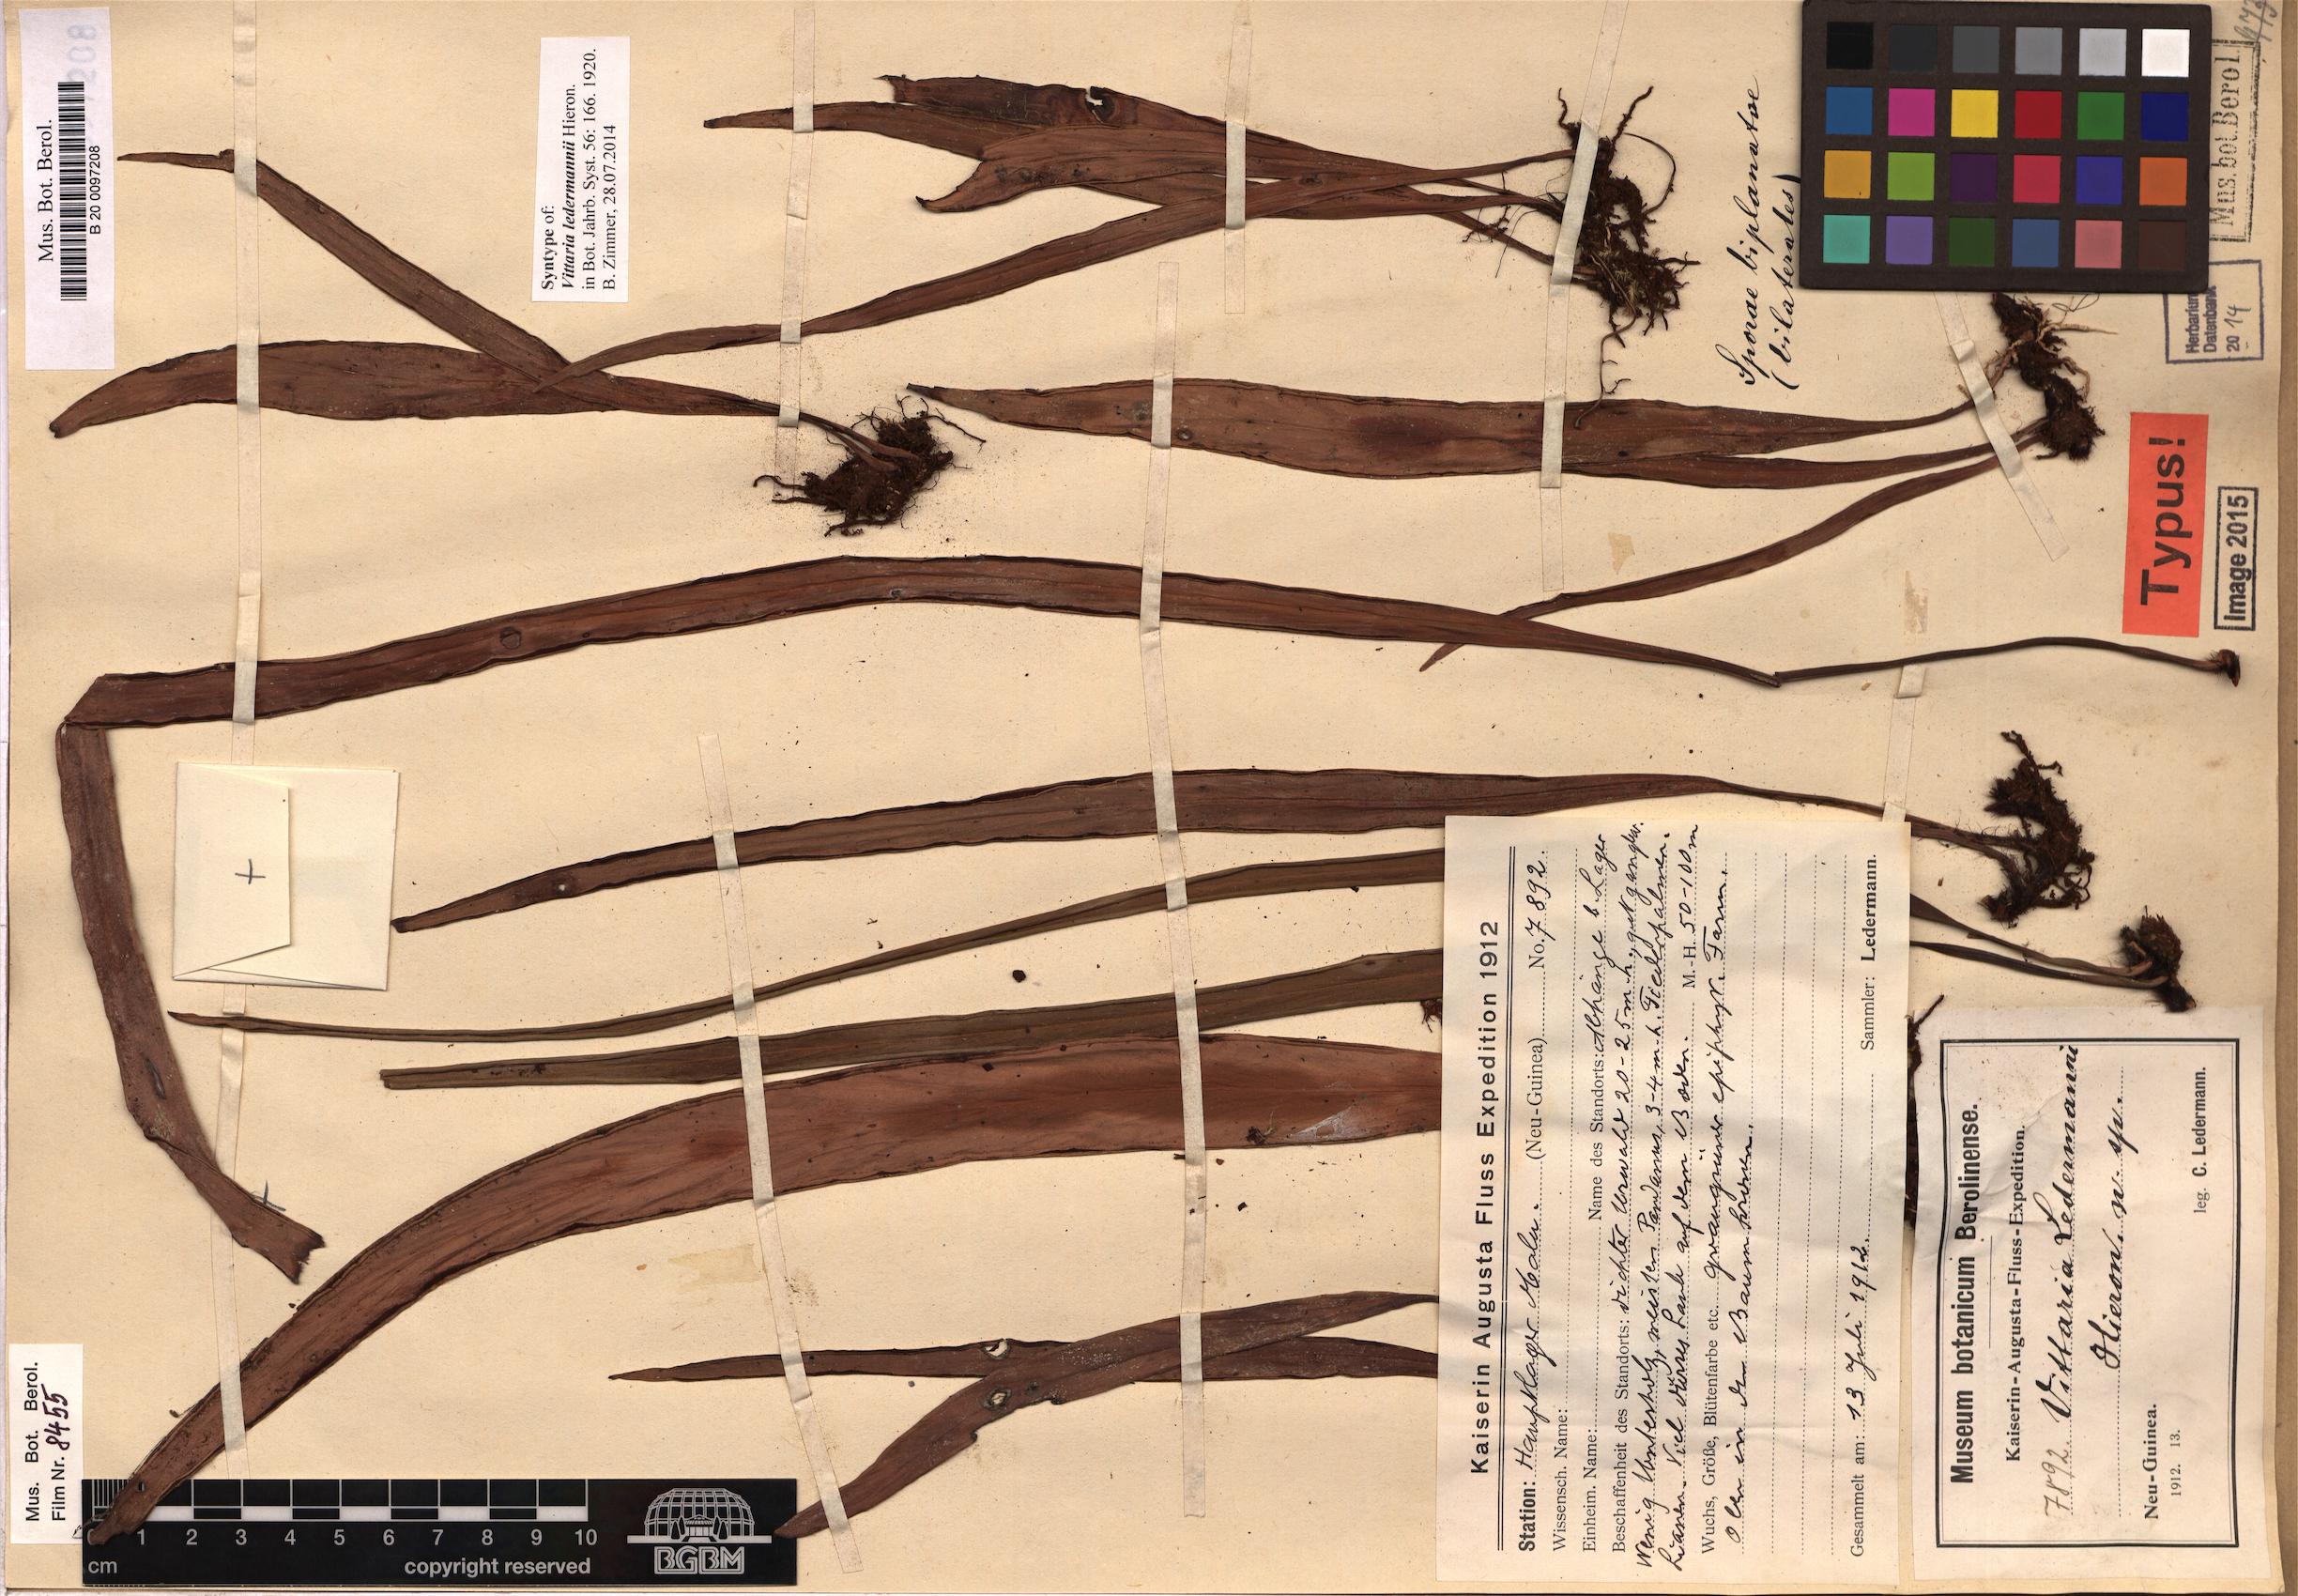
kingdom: Plantae
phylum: Tracheophyta
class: Polypodiopsida
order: Polypodiales
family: Pteridaceae
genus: Haplopteris
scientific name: Haplopteris elongata
